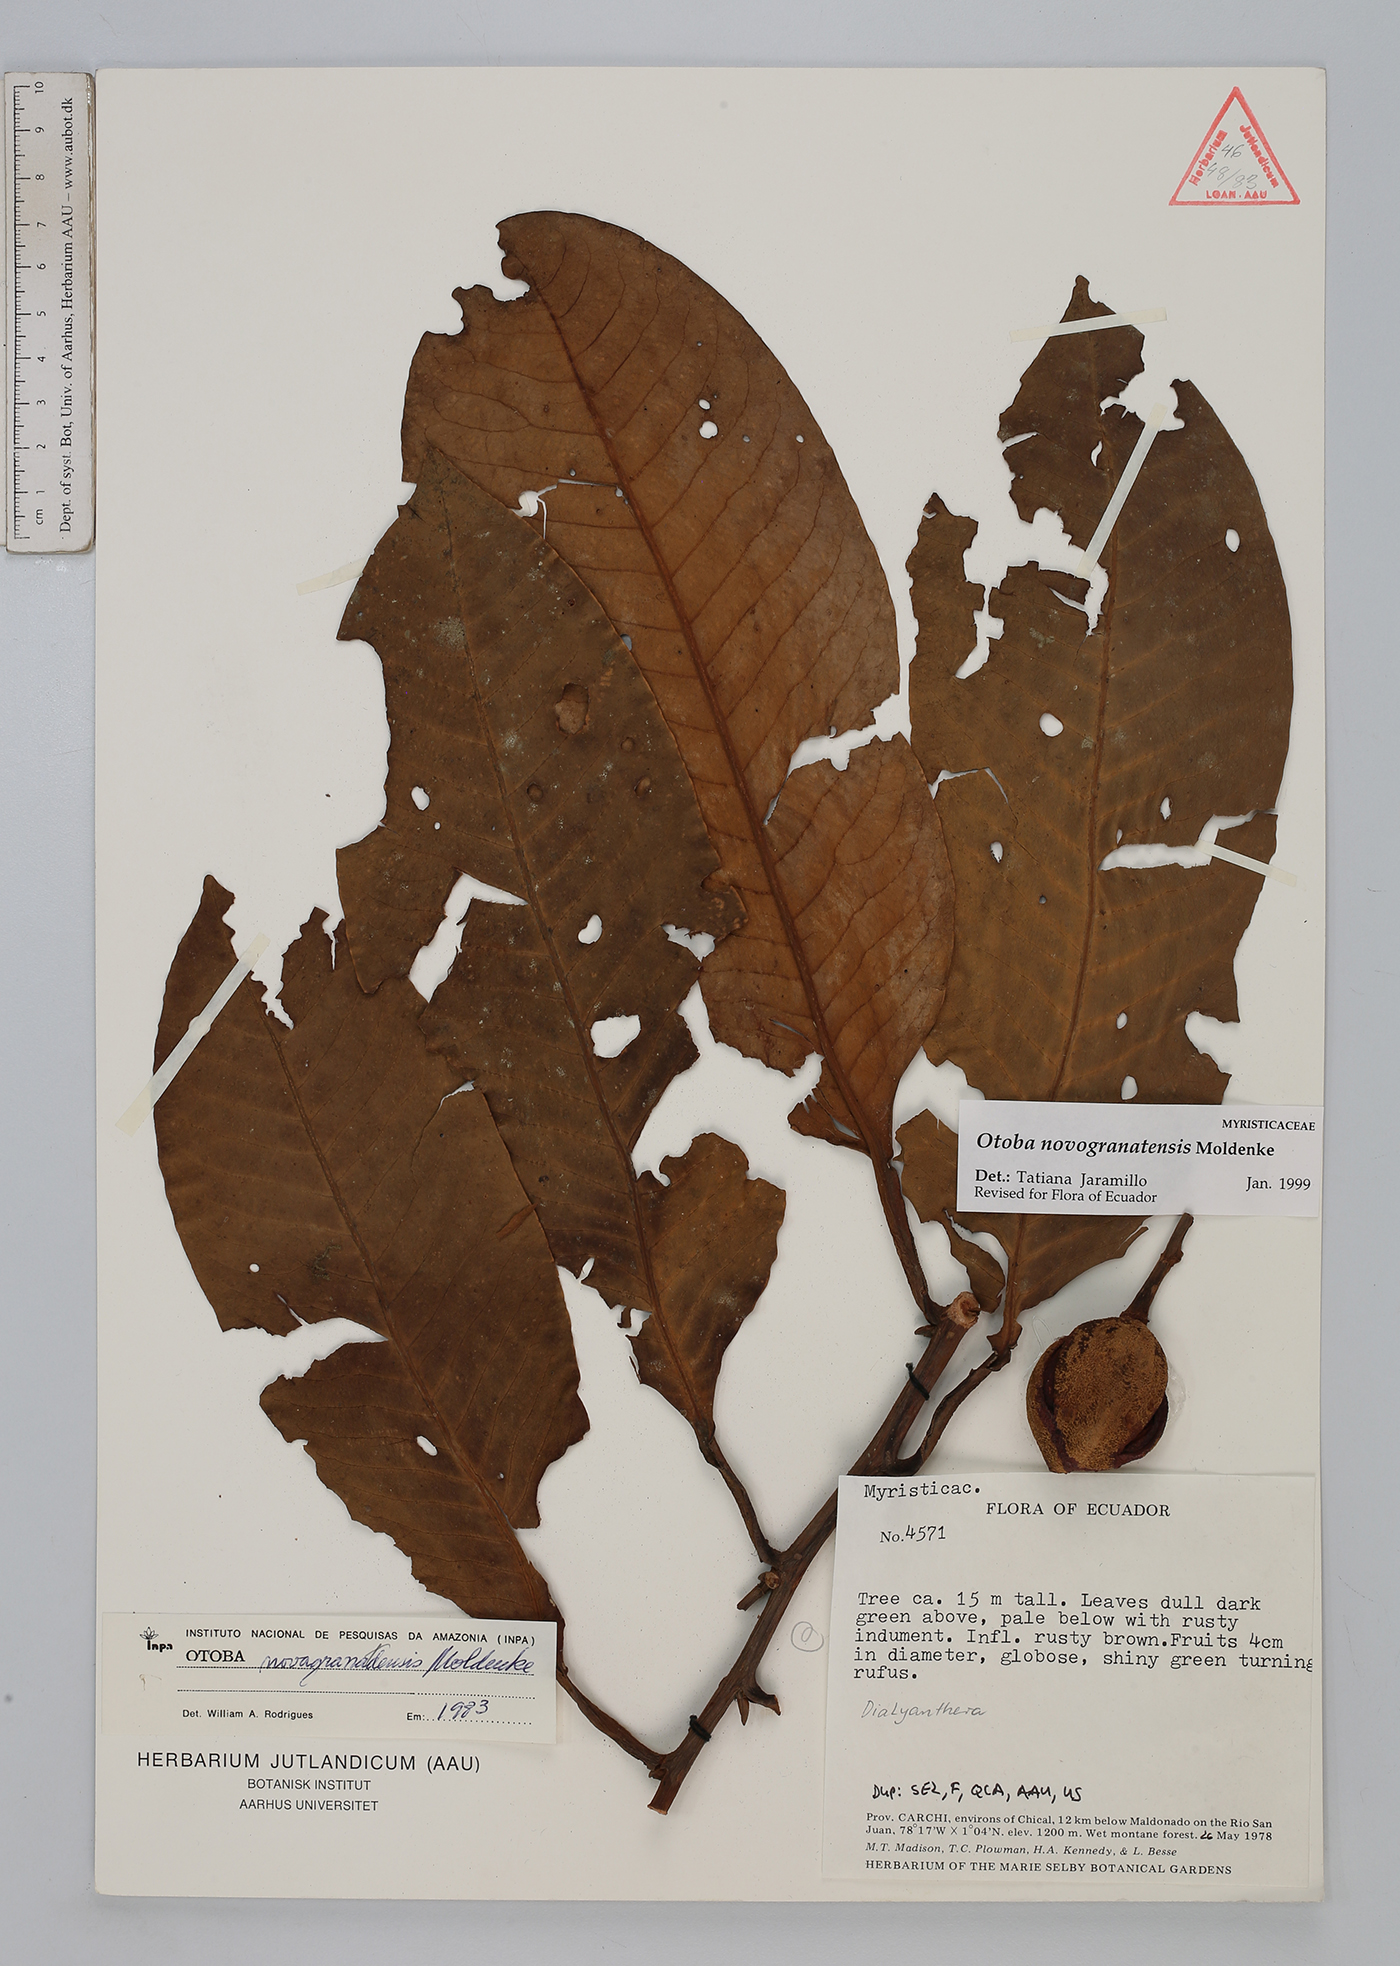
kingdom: Plantae
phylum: Tracheophyta
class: Magnoliopsida
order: Magnoliales
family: Myristicaceae
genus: Otoba
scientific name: Otoba novogranatensis
